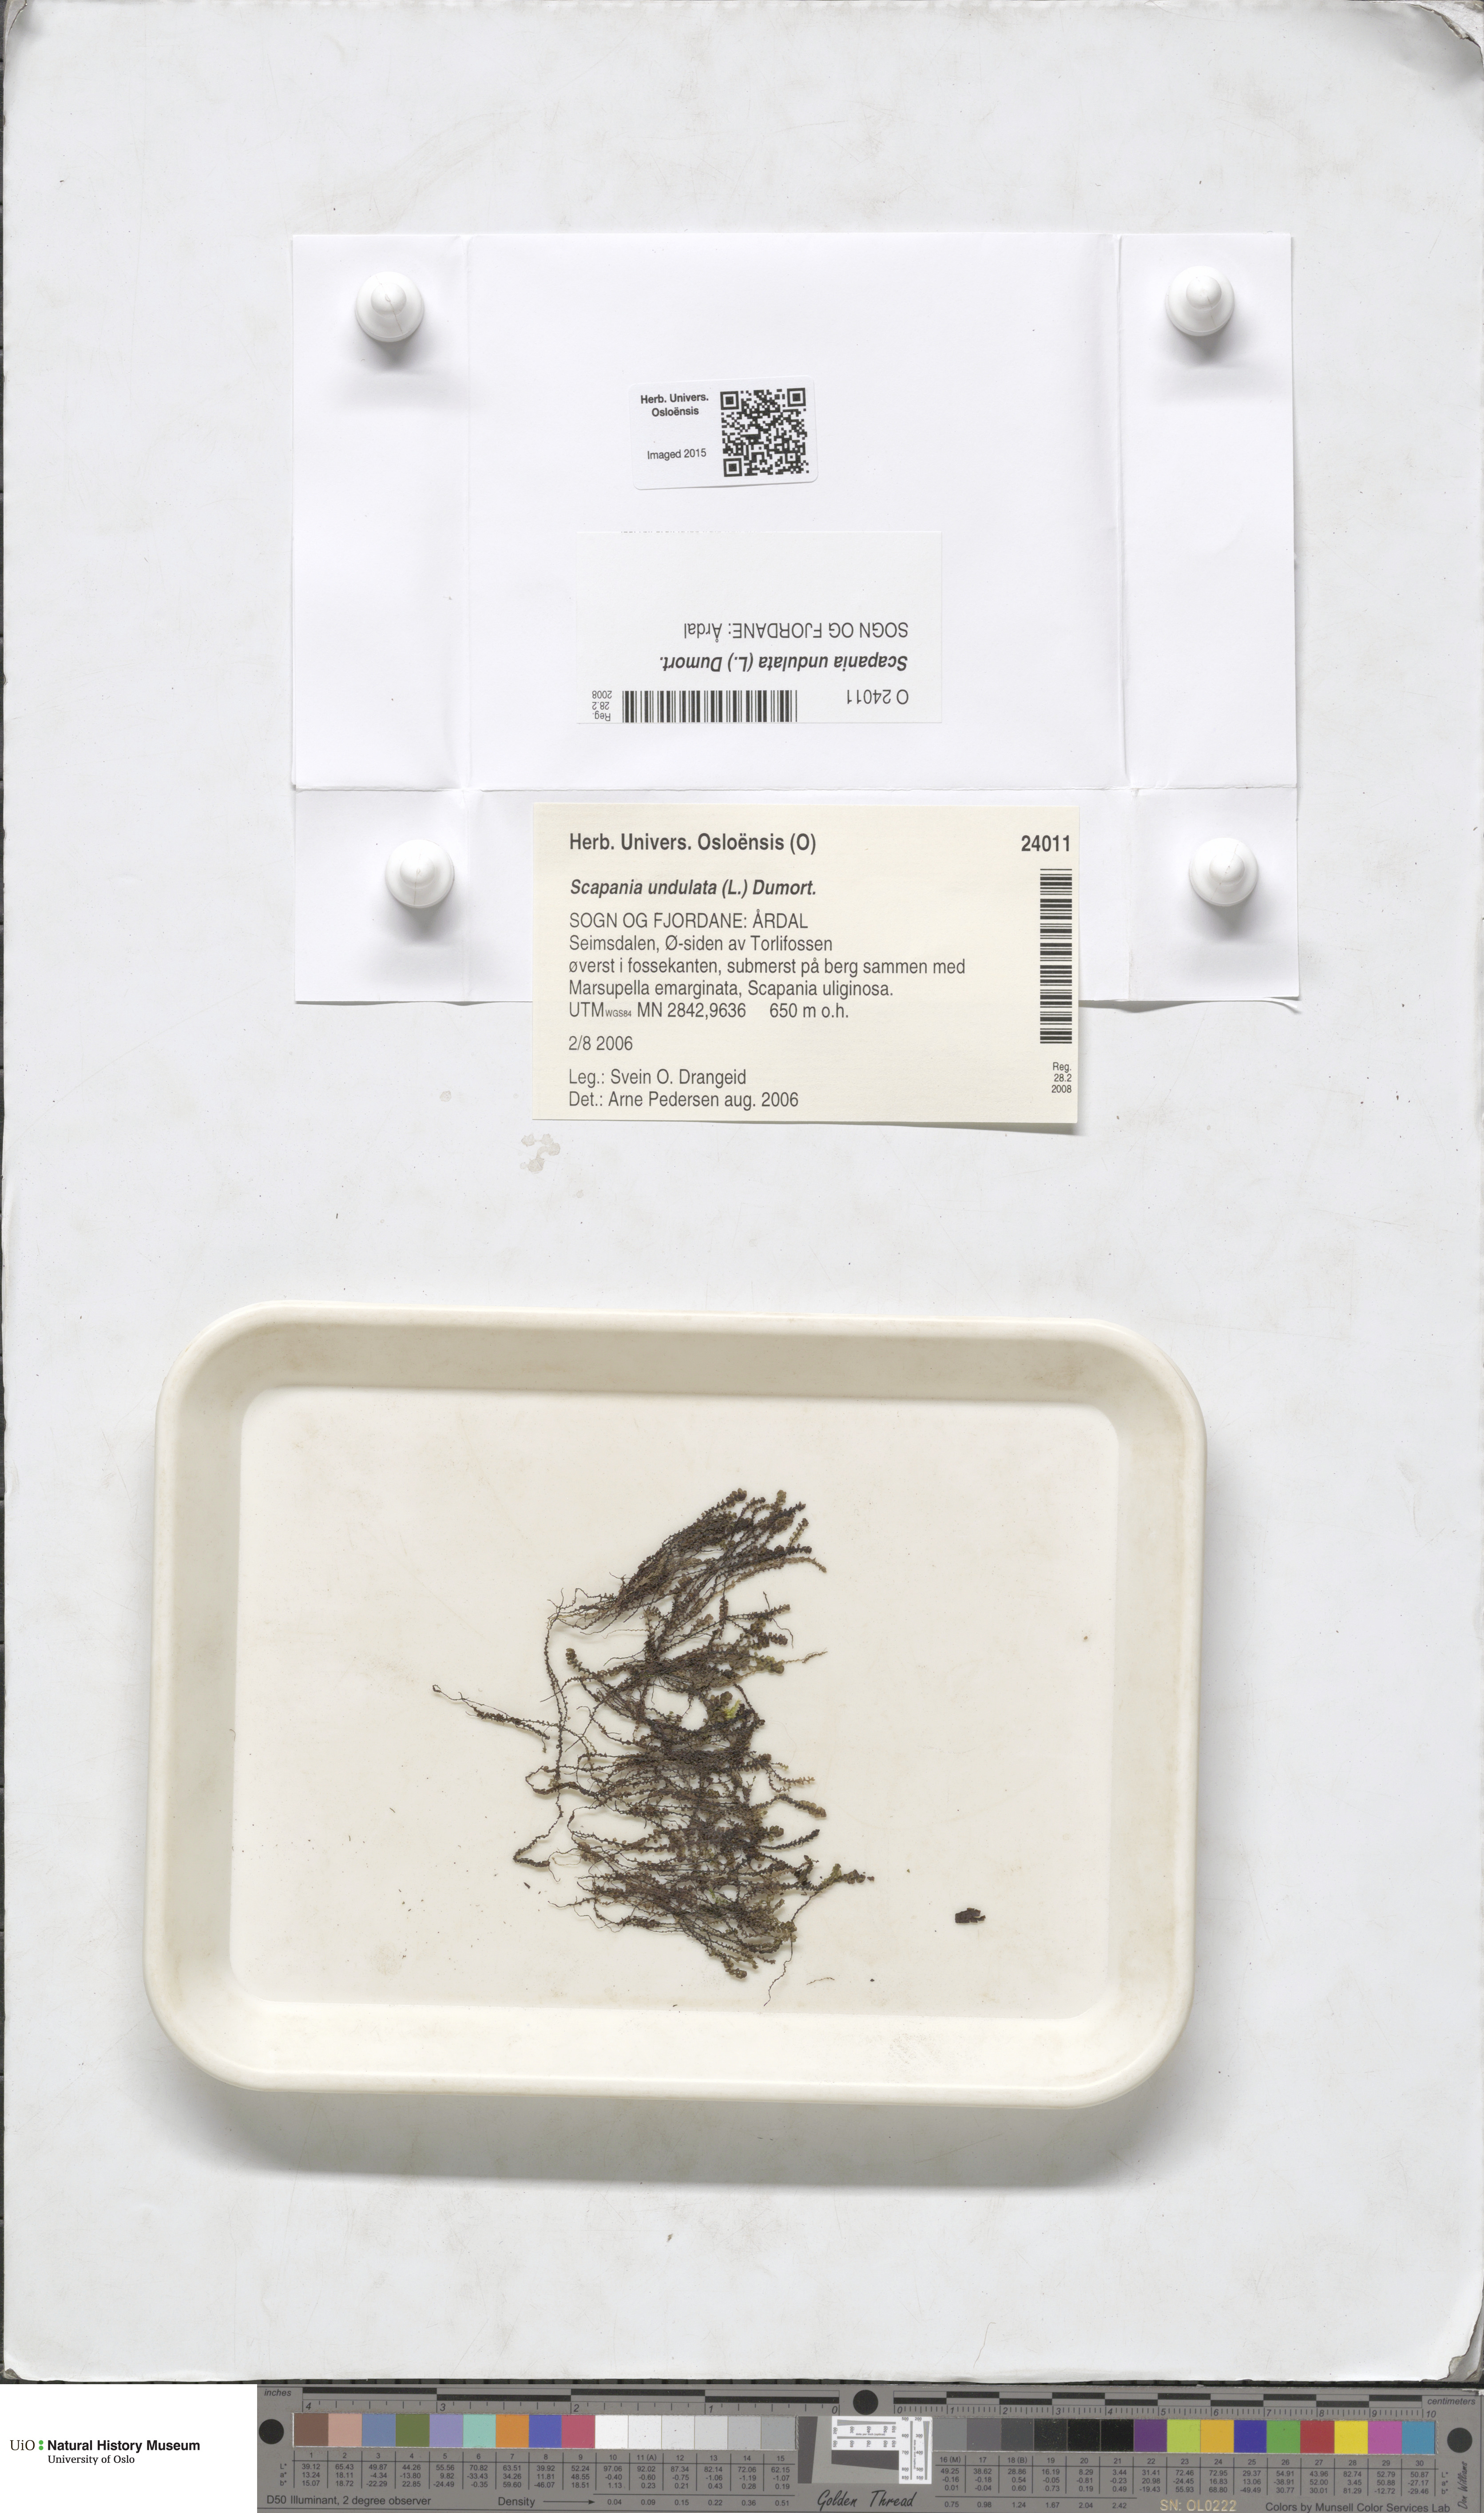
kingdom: Plantae
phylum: Marchantiophyta
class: Jungermanniopsida
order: Jungermanniales
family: Scapaniaceae
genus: Scapania
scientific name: Scapania undulata
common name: Water earwort
